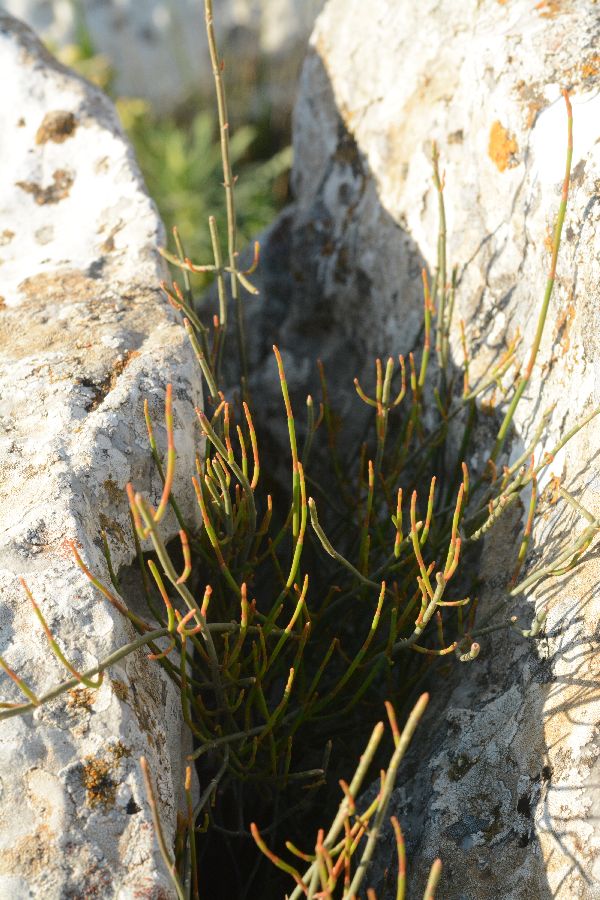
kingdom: Plantae
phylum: Tracheophyta
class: Gnetopsida
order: Ephedrales
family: Ephedraceae
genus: Ephedra
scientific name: Ephedra distachya
